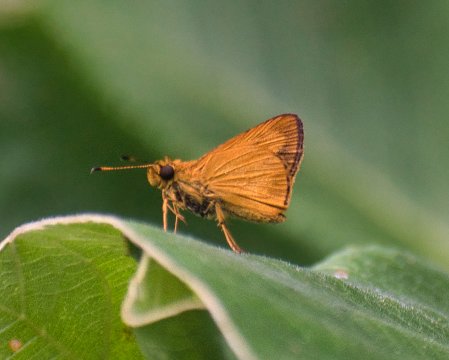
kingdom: Animalia
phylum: Arthropoda
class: Insecta
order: Lepidoptera
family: Hesperiidae
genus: Anthoptus
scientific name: Anthoptus
